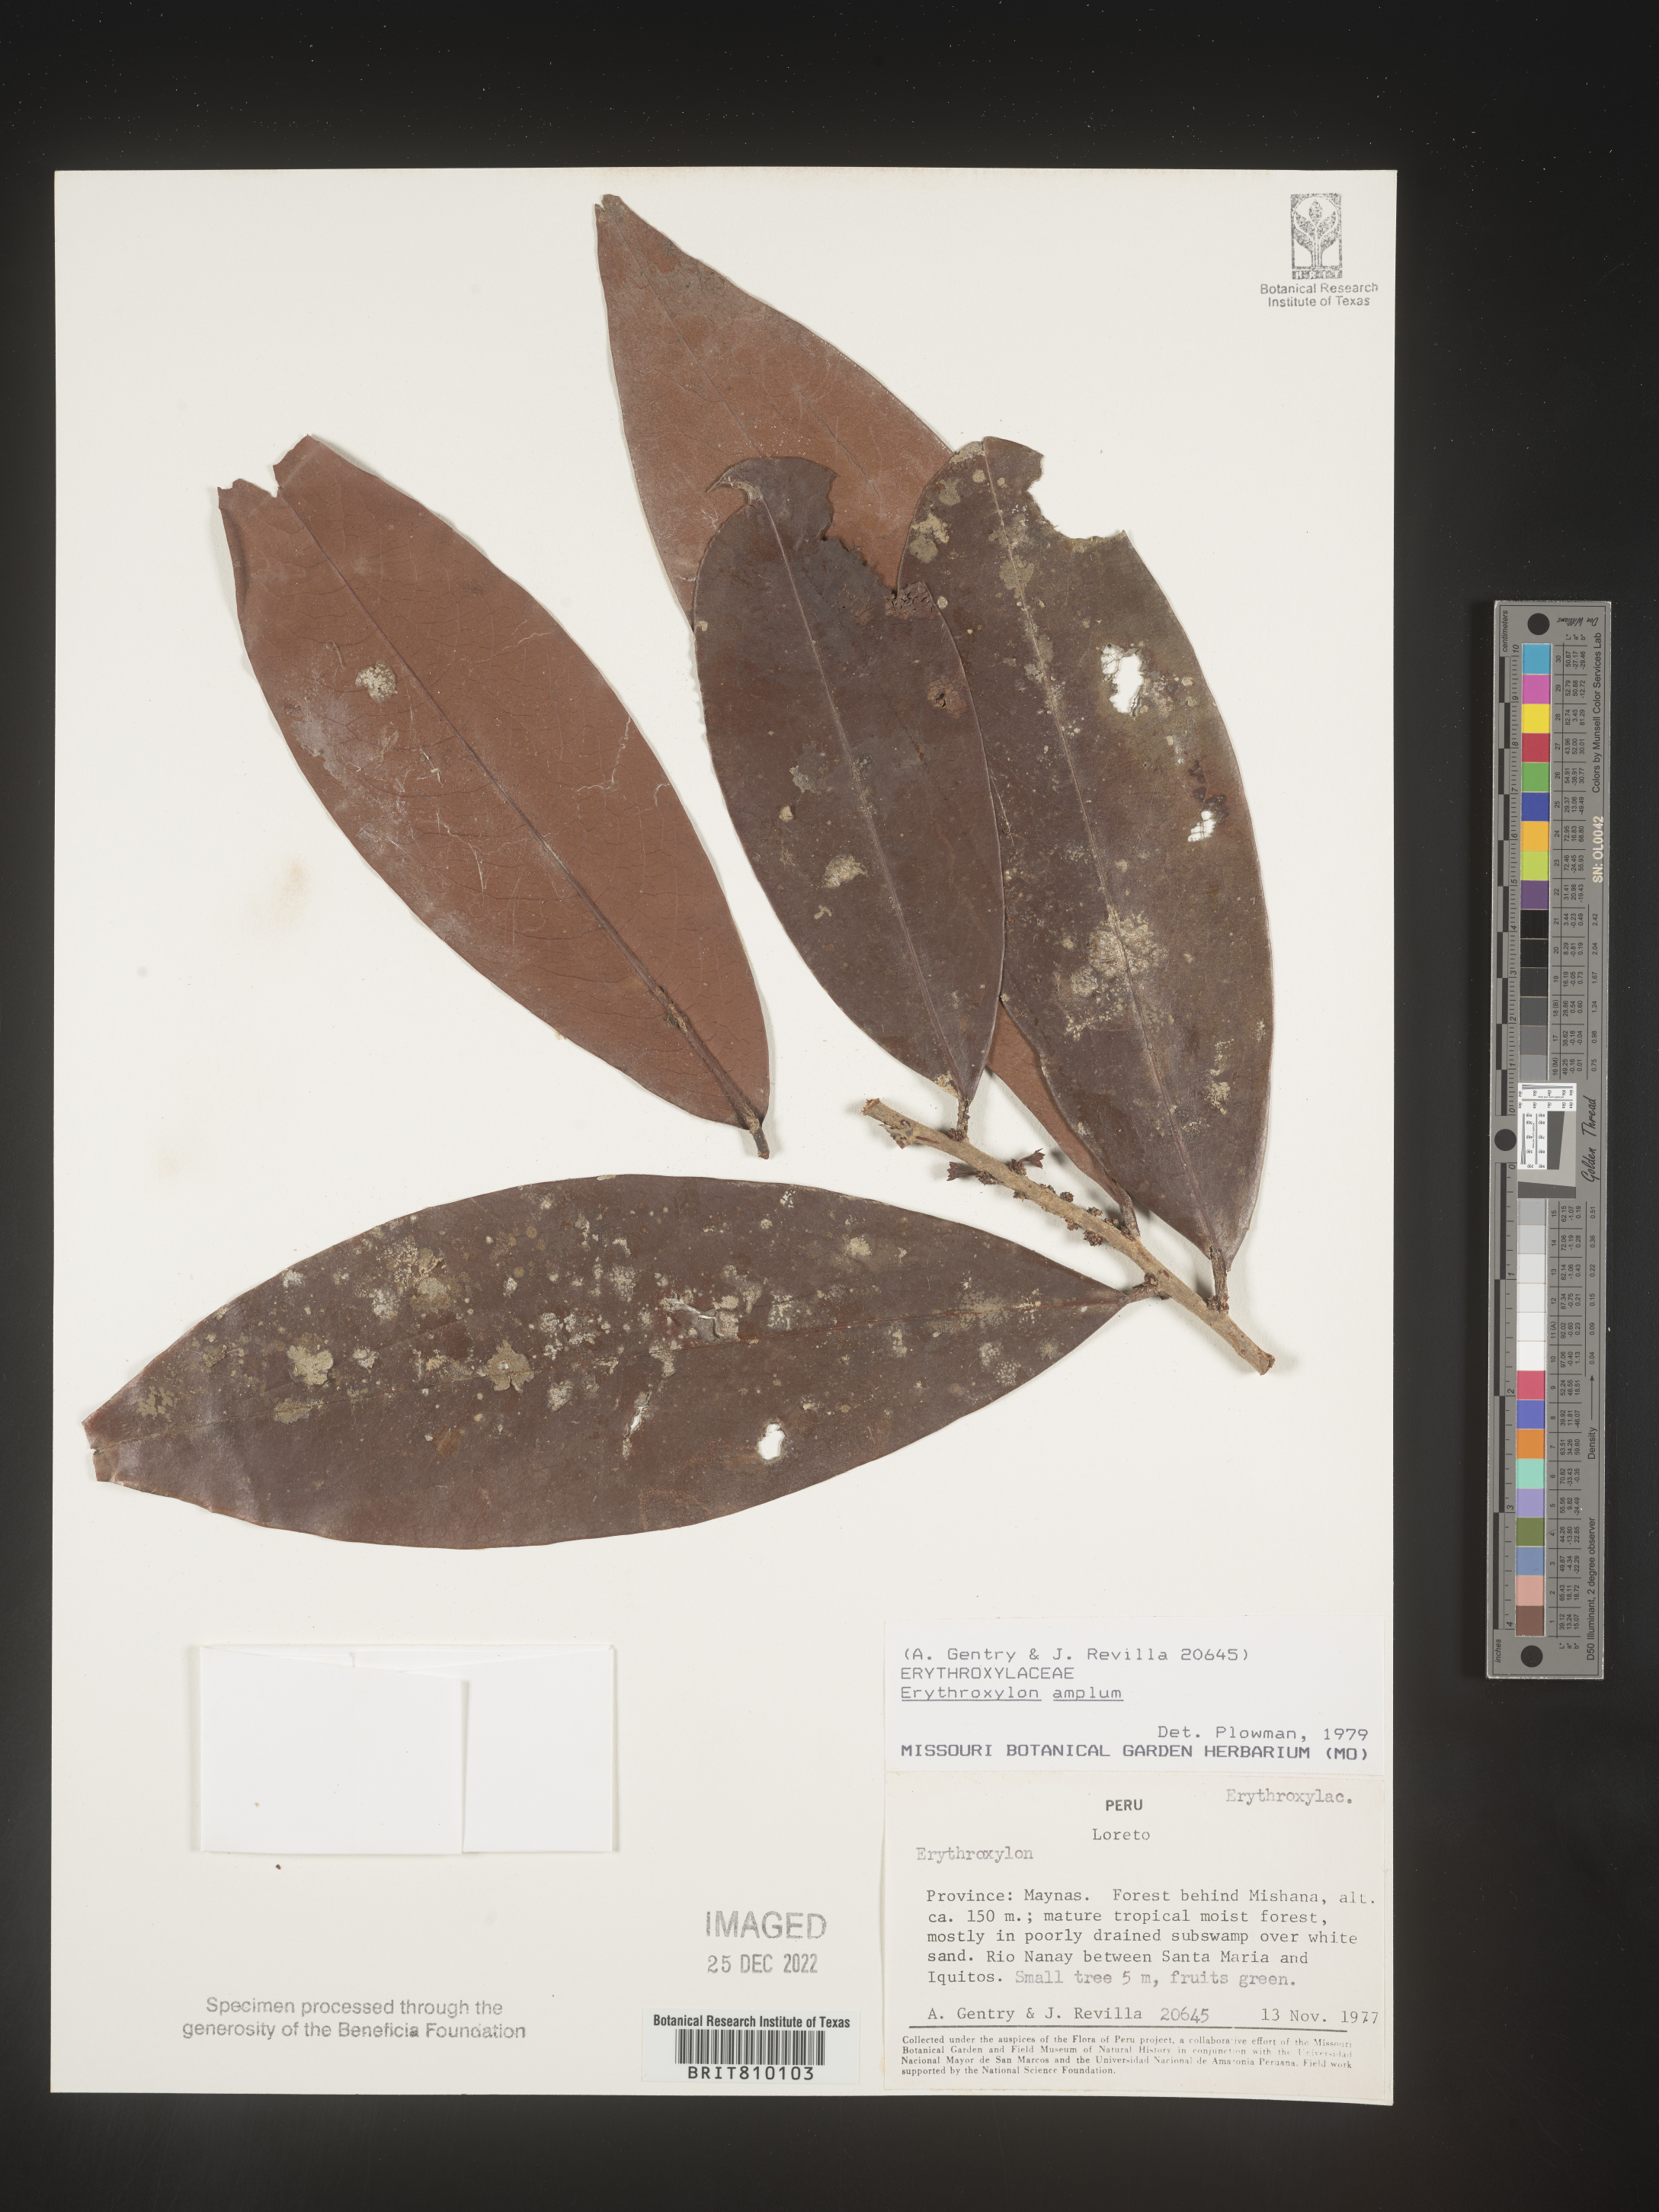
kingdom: Plantae
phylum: Tracheophyta
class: Magnoliopsida
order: Malpighiales
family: Erythroxylaceae
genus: Erythroxylum
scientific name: Erythroxylum
